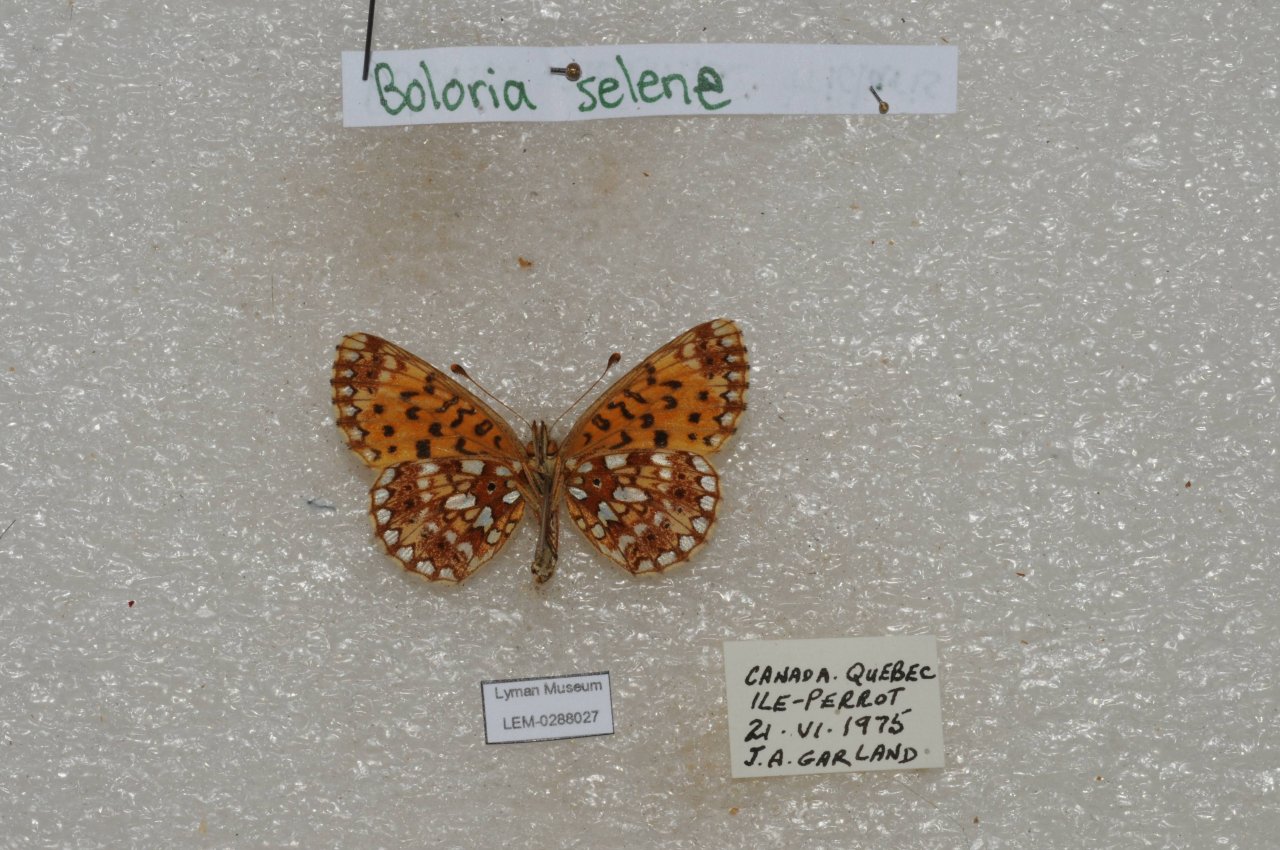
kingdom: Animalia
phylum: Arthropoda
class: Insecta
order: Lepidoptera
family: Nymphalidae
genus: Boloria
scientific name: Boloria selene
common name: Silver-bordered Fritillary
